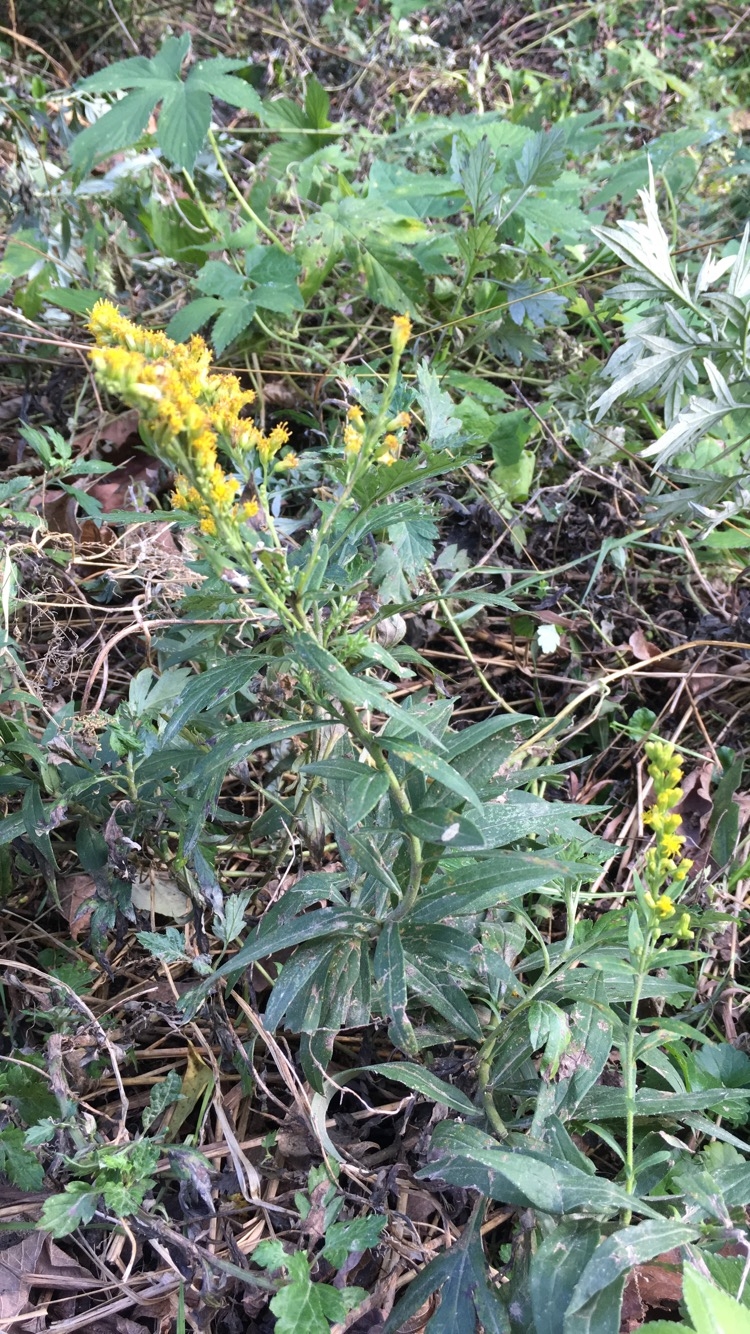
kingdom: Plantae
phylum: Tracheophyta
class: Magnoliopsida
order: Asterales
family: Asteraceae
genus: Solidago
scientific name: Solidago altissima
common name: Late goldenrod
